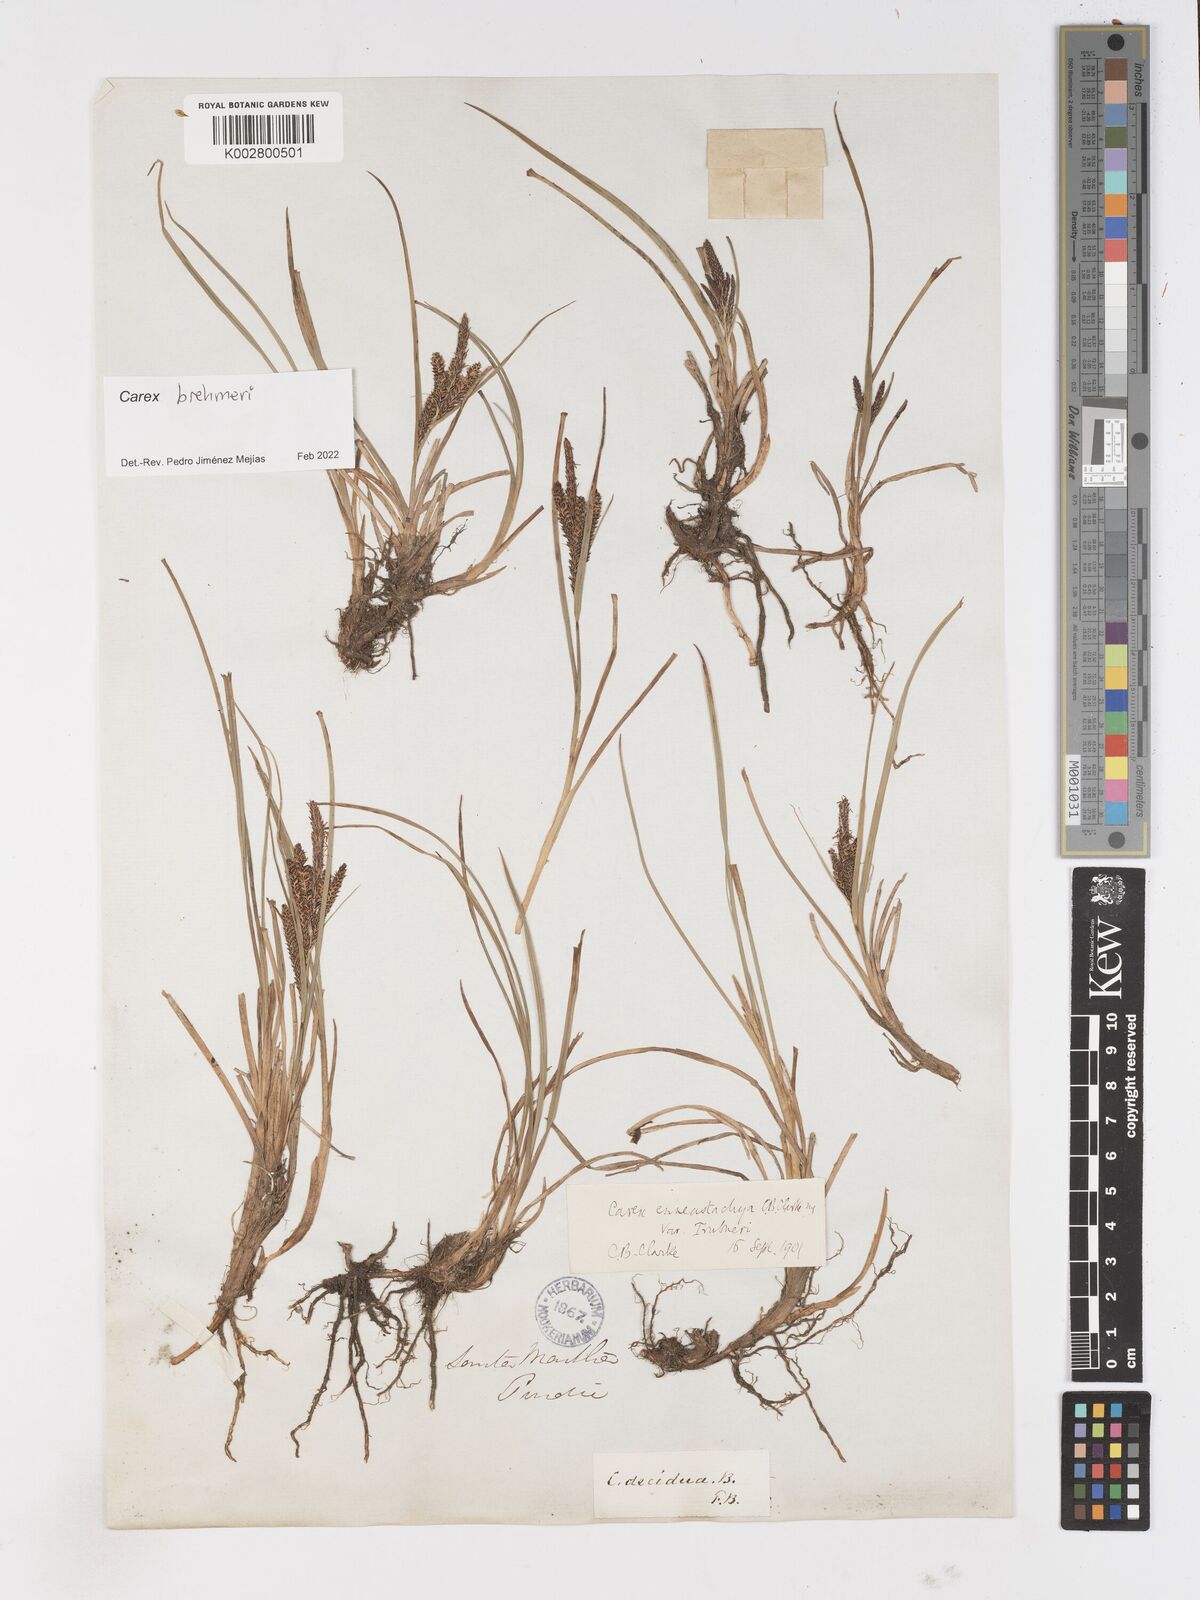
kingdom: Plantae
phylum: Tracheophyta
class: Liliopsida
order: Poales
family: Cyperaceae
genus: Carex
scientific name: Carex enneastachya
